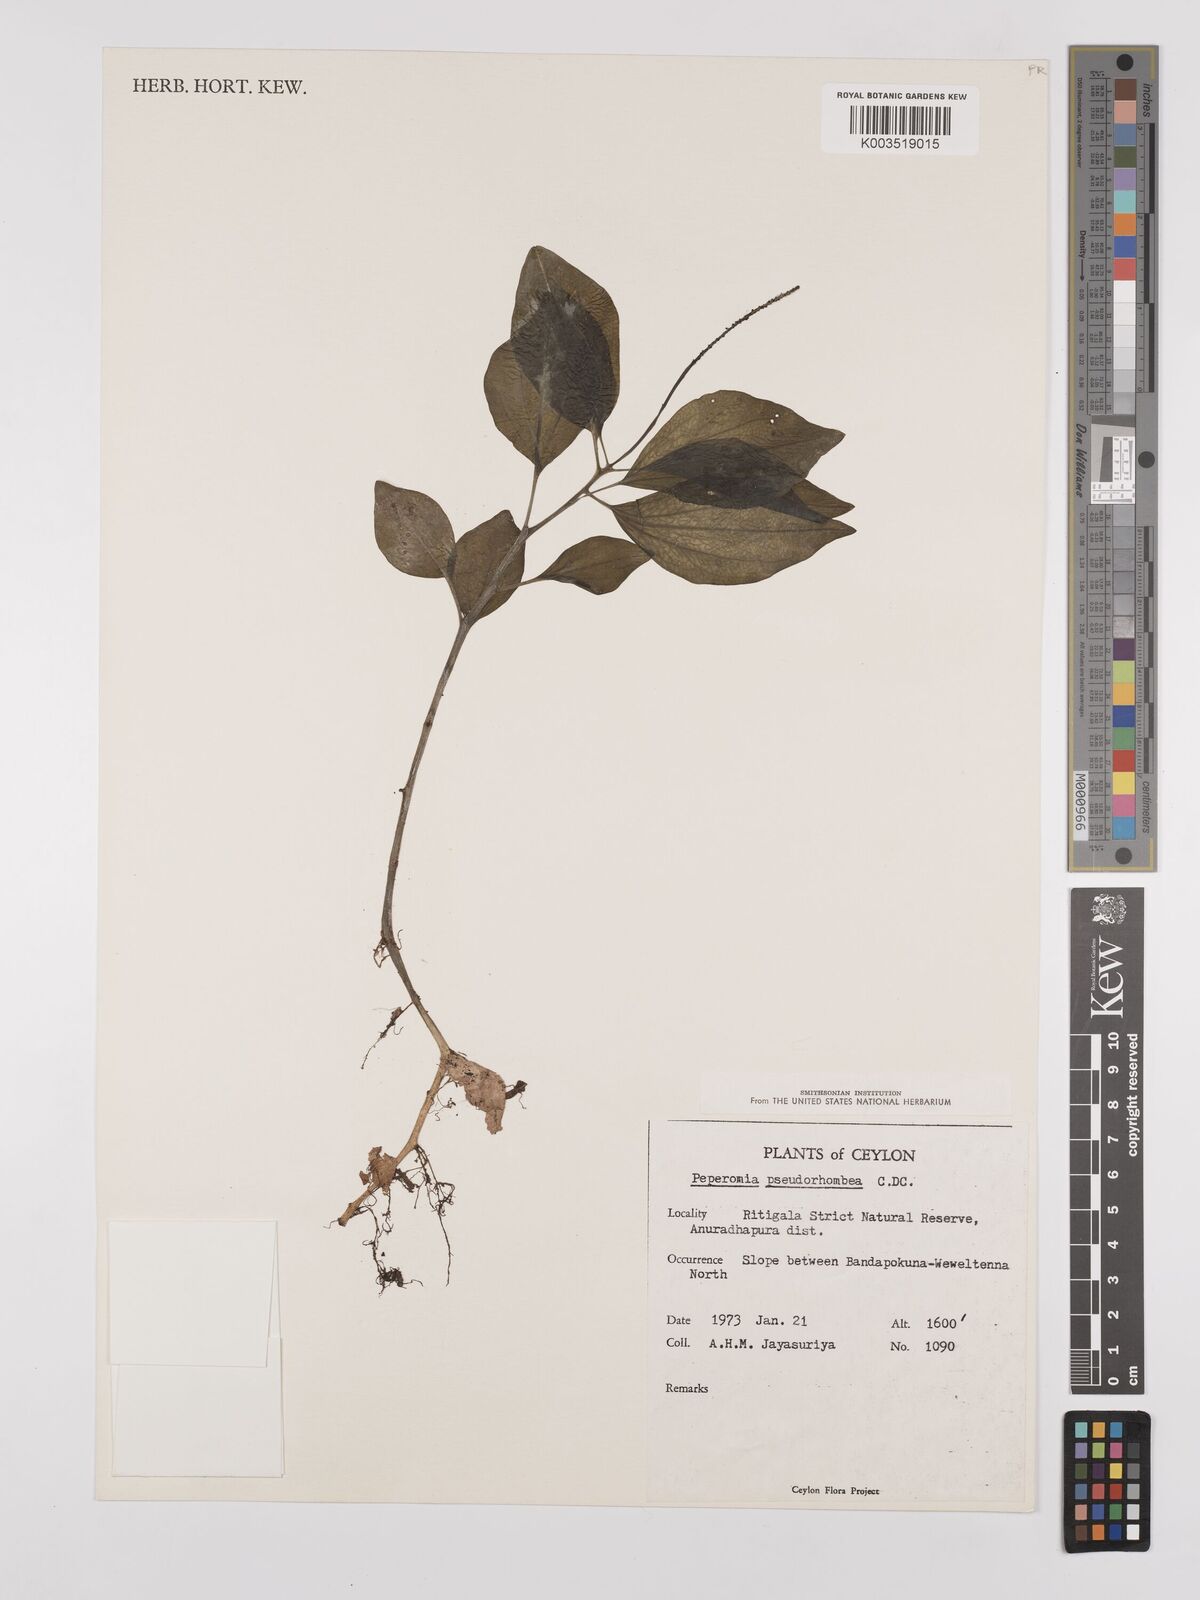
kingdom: Plantae
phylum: Tracheophyta
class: Magnoliopsida
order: Piperales
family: Piperaceae
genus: Peperomia
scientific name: Peperomia pseudorhombea
